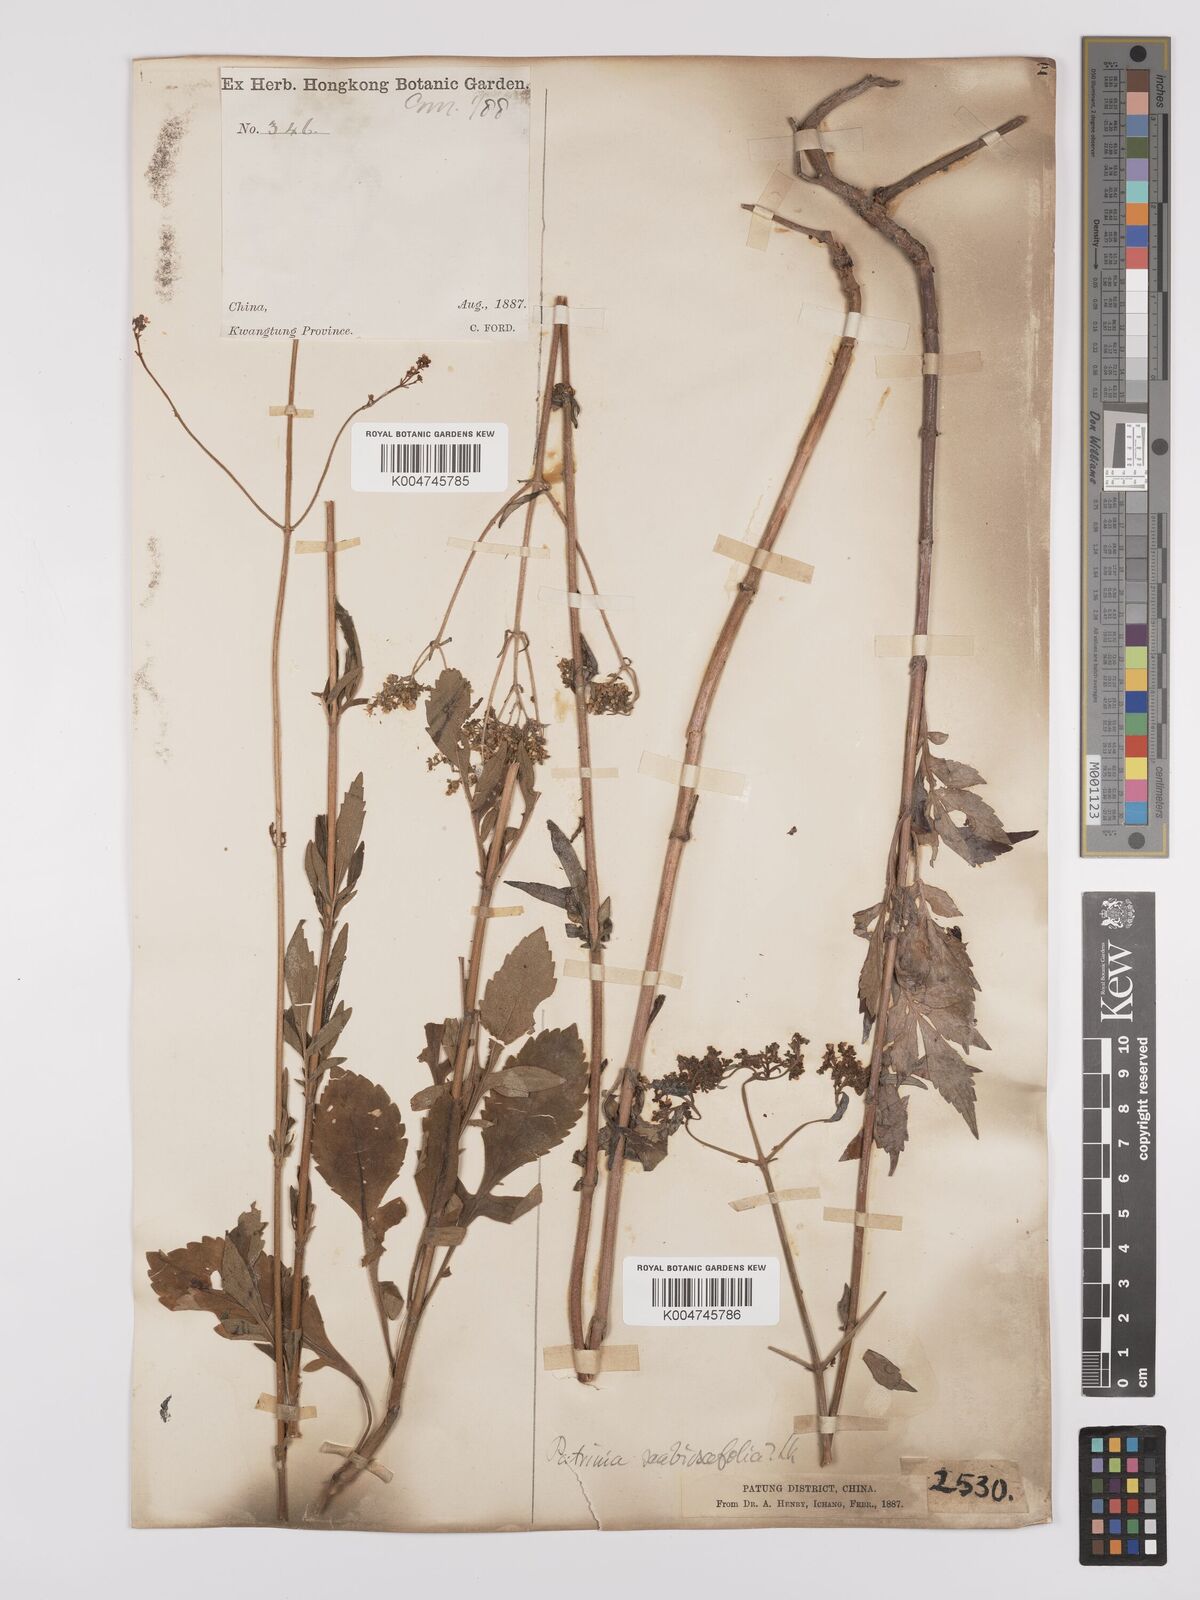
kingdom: Plantae
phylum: Tracheophyta
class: Magnoliopsida
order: Dipsacales
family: Caprifoliaceae
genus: Patrinia
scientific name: Patrinia scabiosifolia
